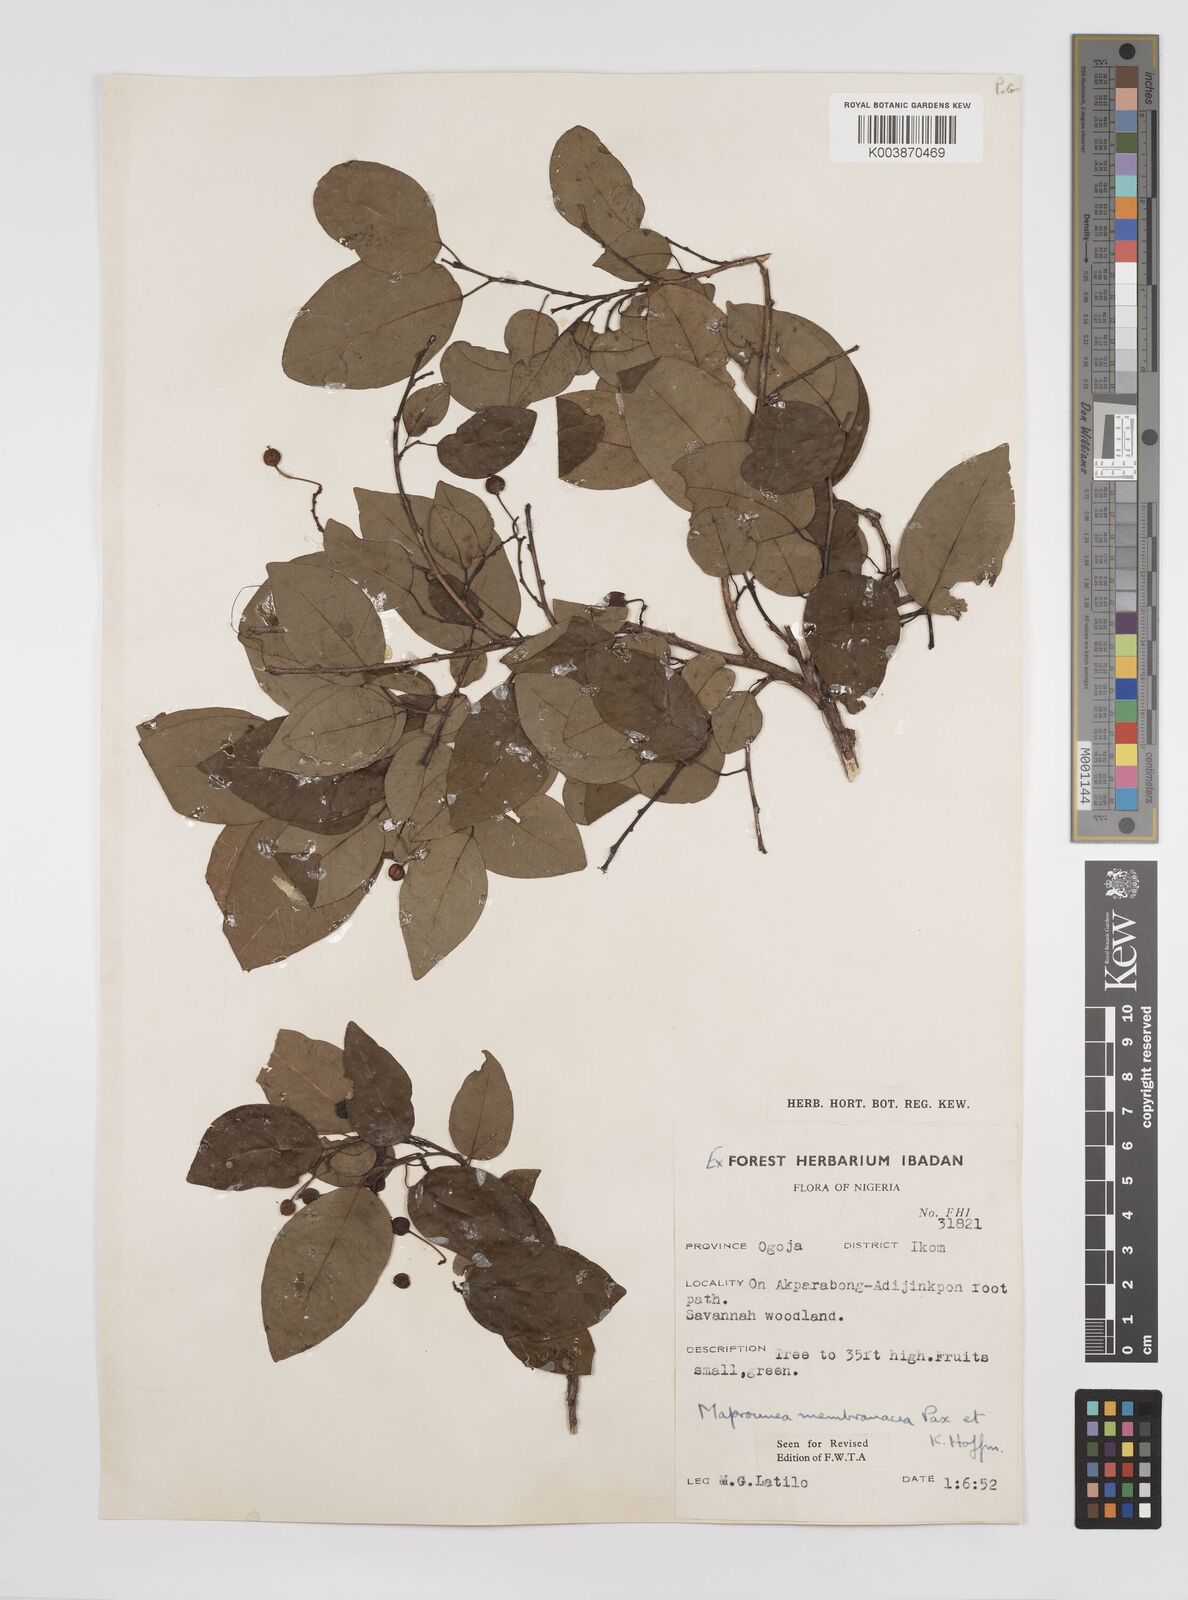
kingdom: Plantae
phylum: Tracheophyta
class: Magnoliopsida
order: Malpighiales
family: Euphorbiaceae
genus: Maprounea
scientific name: Maprounea membranacea
